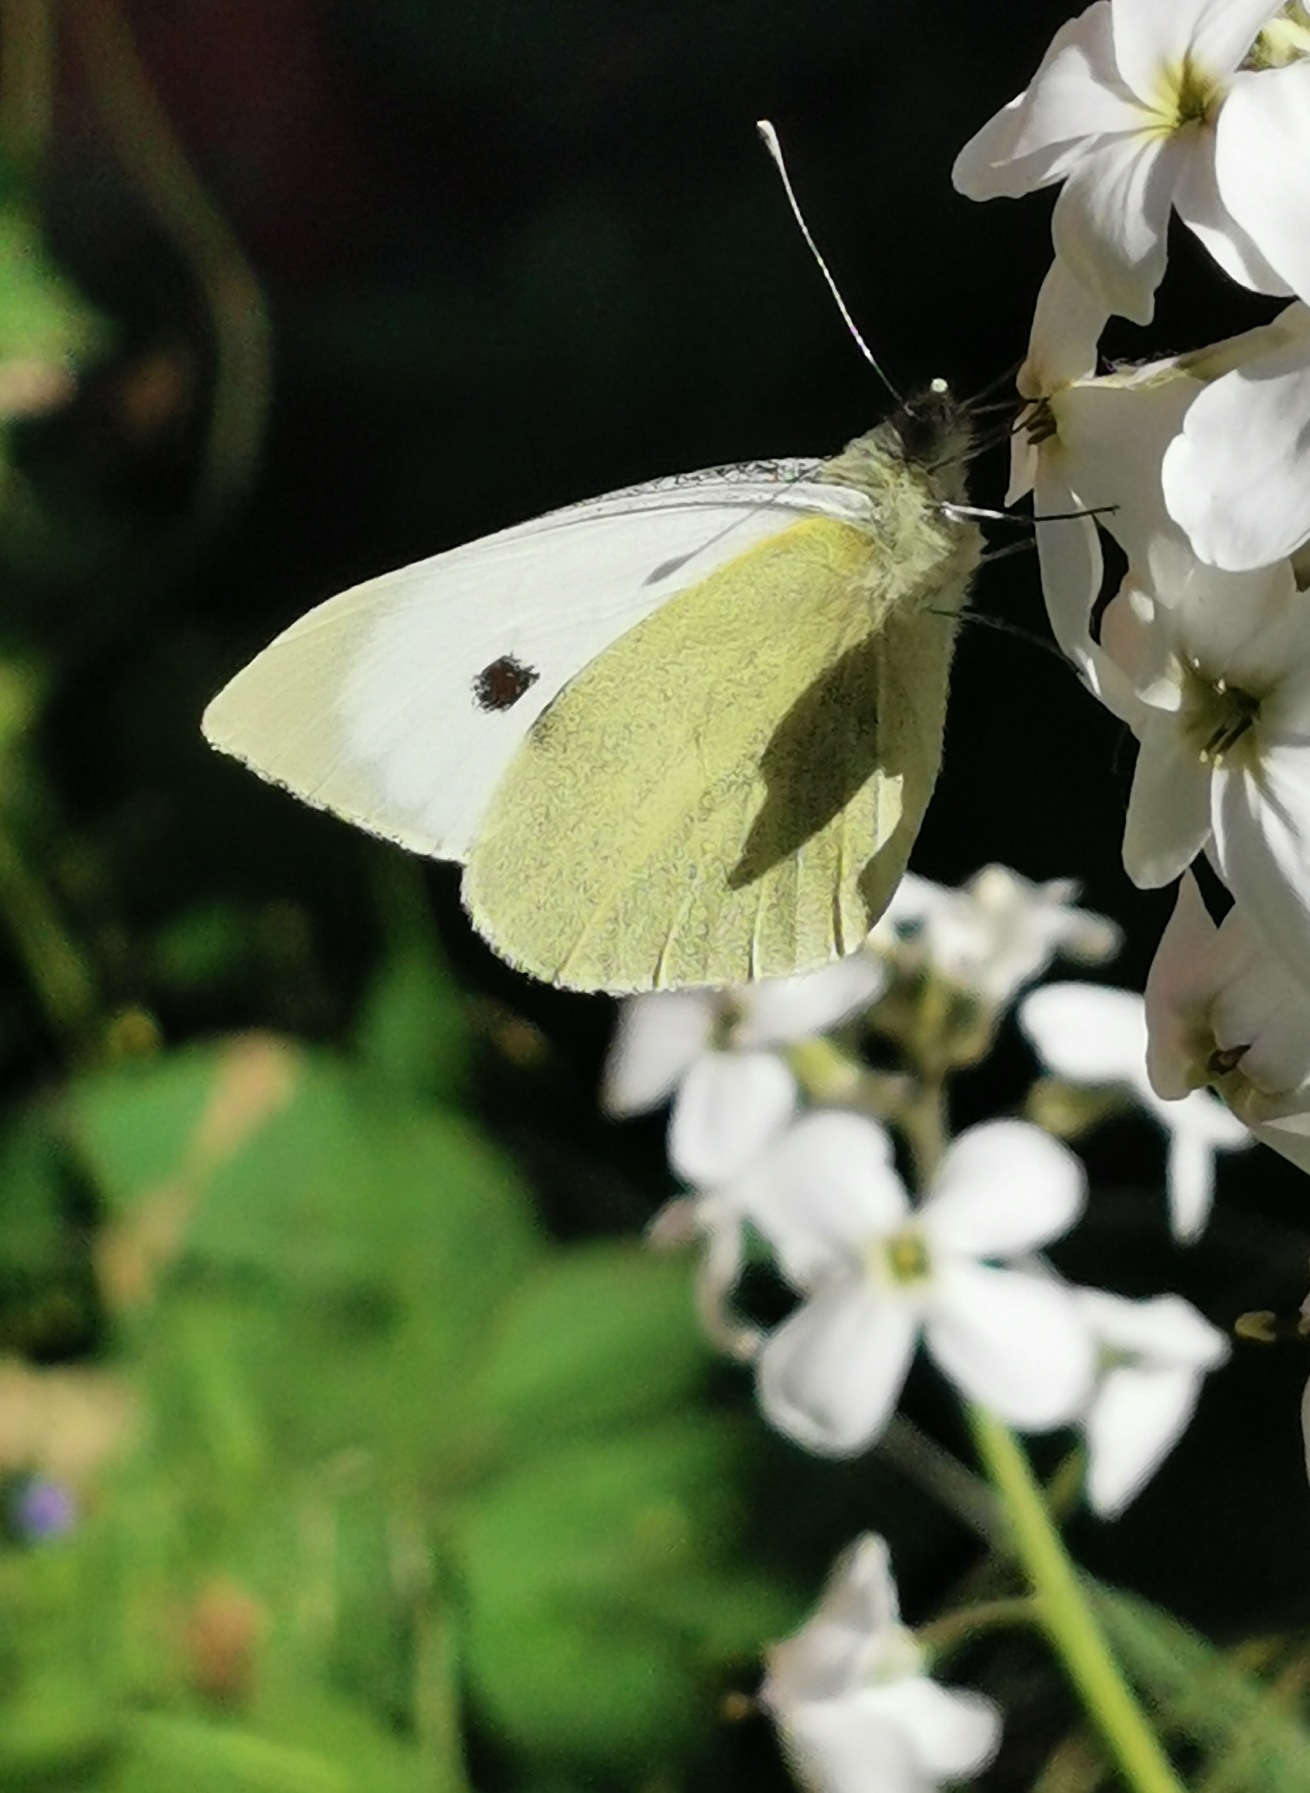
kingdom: Animalia
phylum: Arthropoda
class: Insecta
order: Lepidoptera
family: Pieridae
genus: Pieris
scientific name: Pieris brassicae
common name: Stor kålsommerfugl
